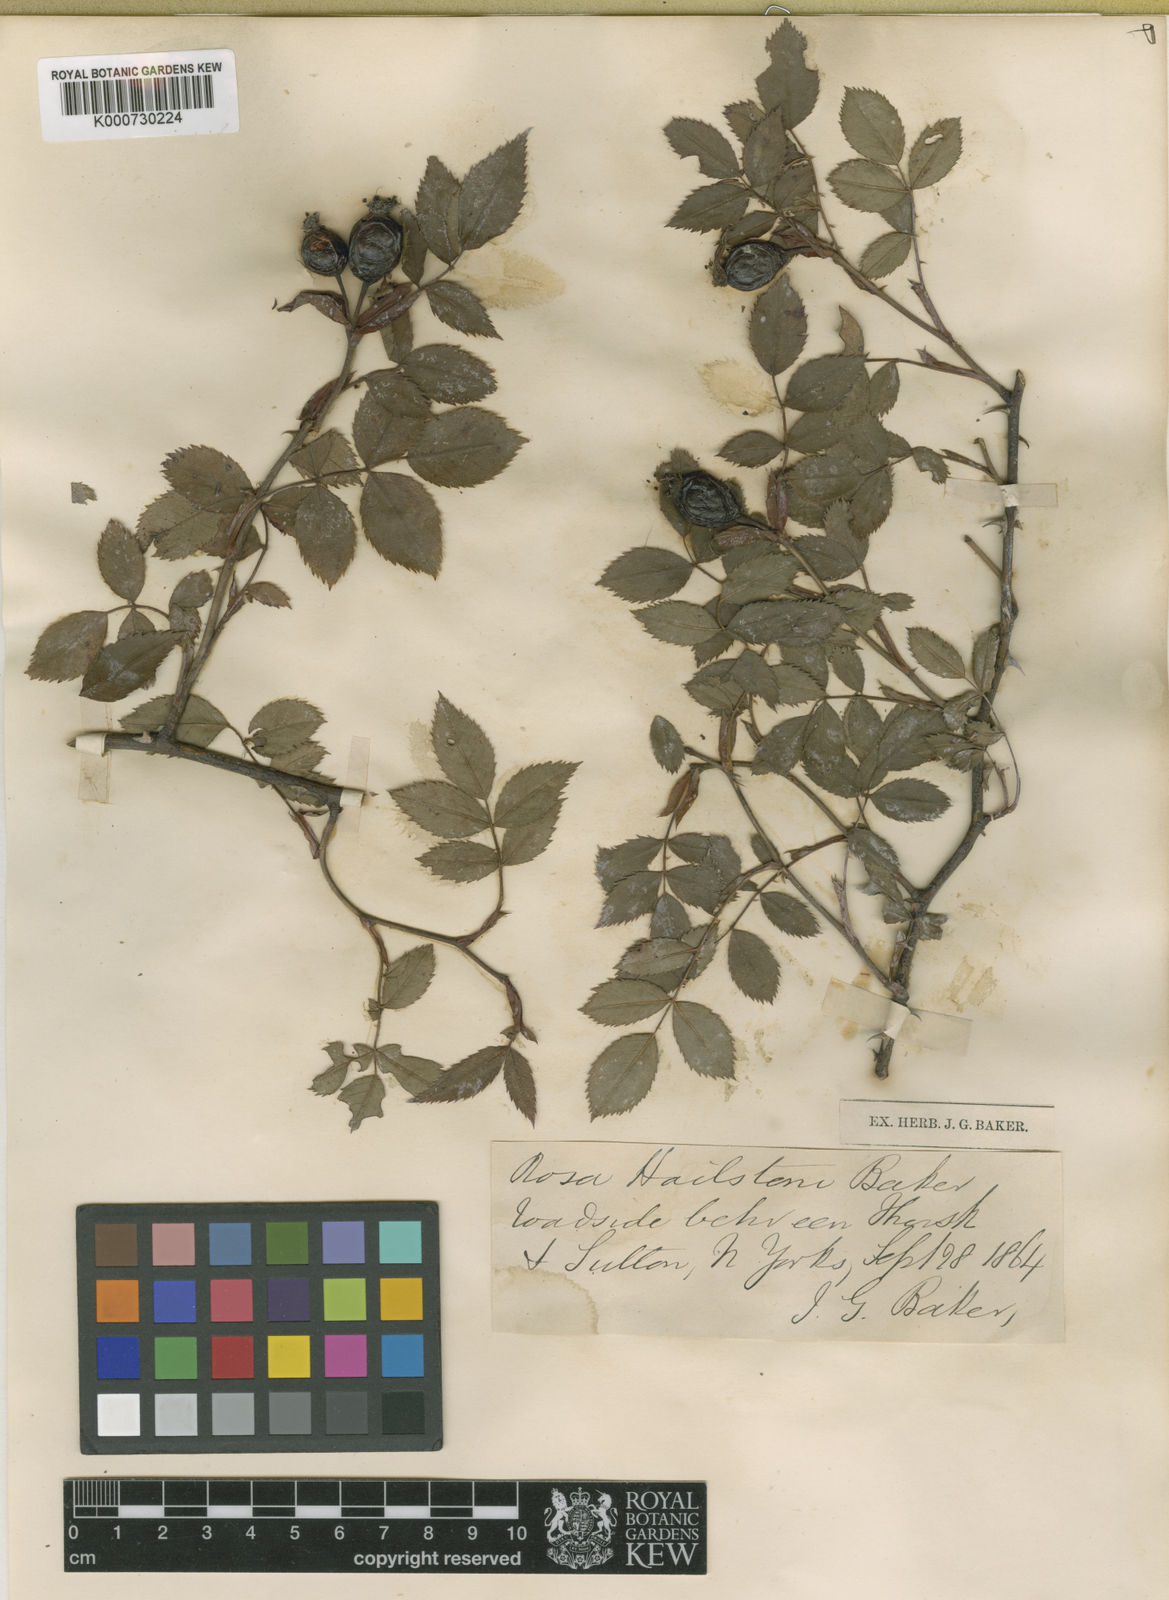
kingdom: Plantae
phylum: Tracheophyta
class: Magnoliopsida
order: Rosales
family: Rosaceae
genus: Rosa
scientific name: Rosa canina
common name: Dog rose
